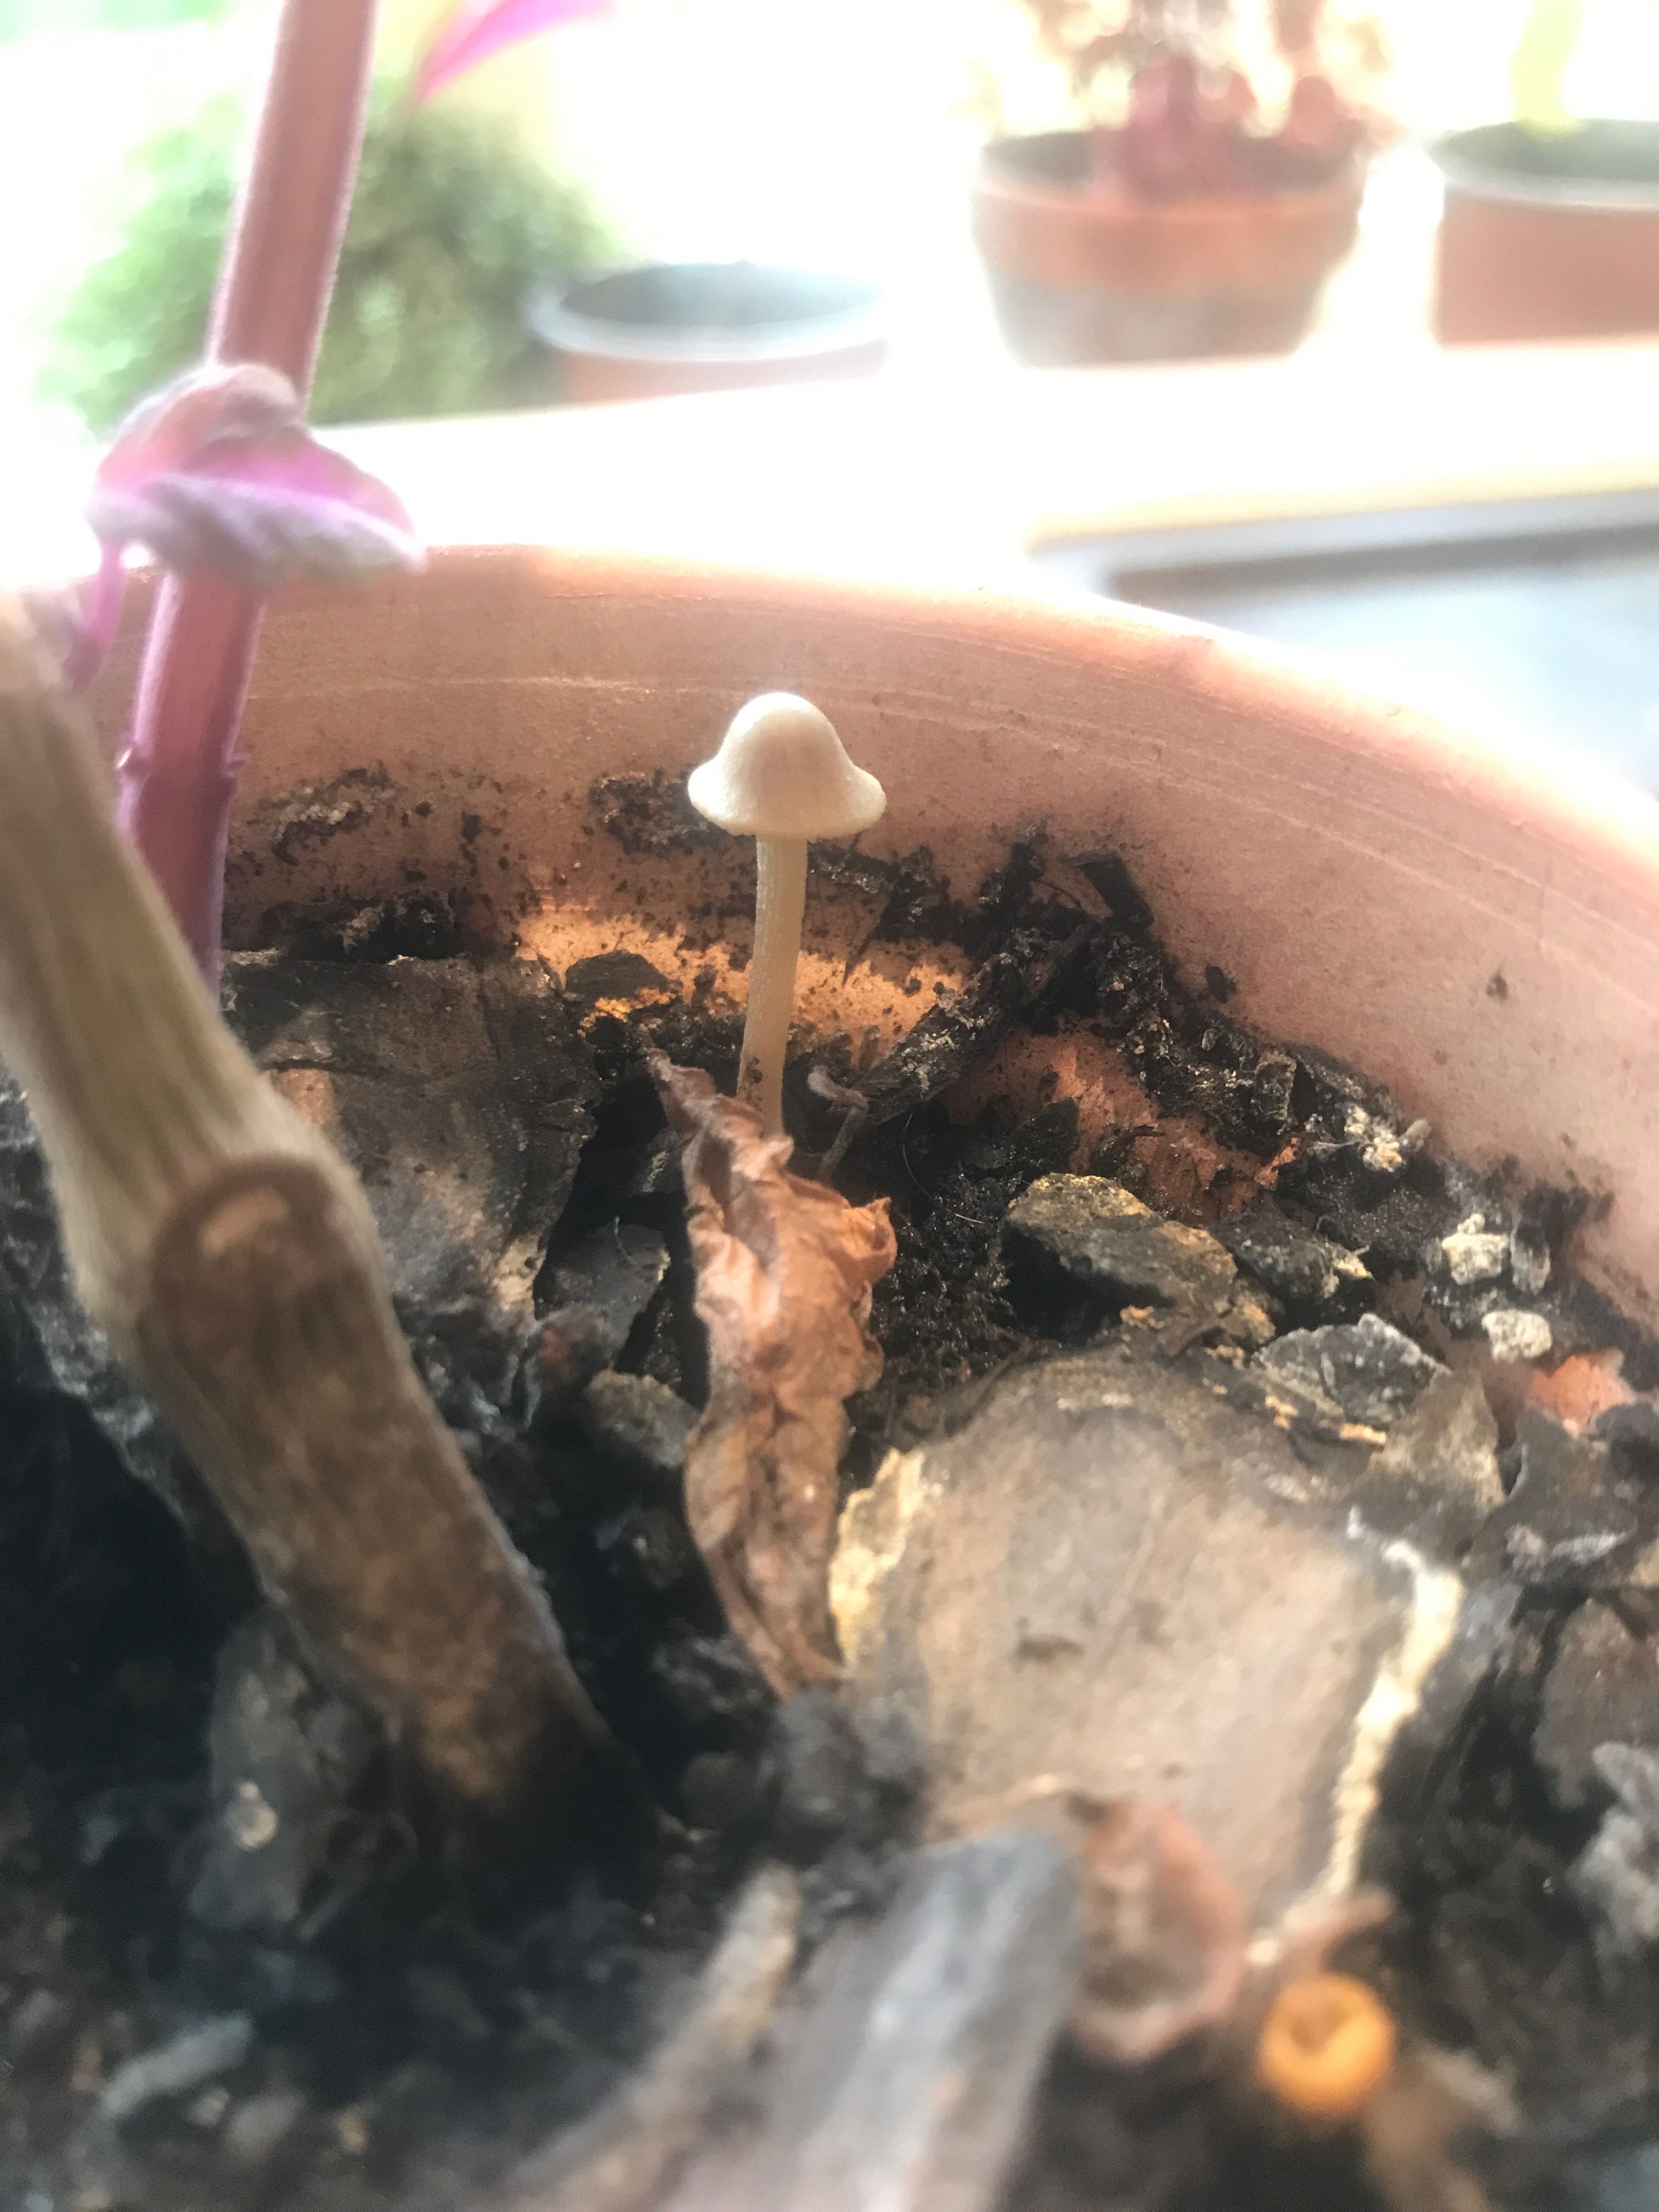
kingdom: Fungi
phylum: Basidiomycota
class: Agaricomycetes
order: Agaricales
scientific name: Agaricales
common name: champignonordenen
